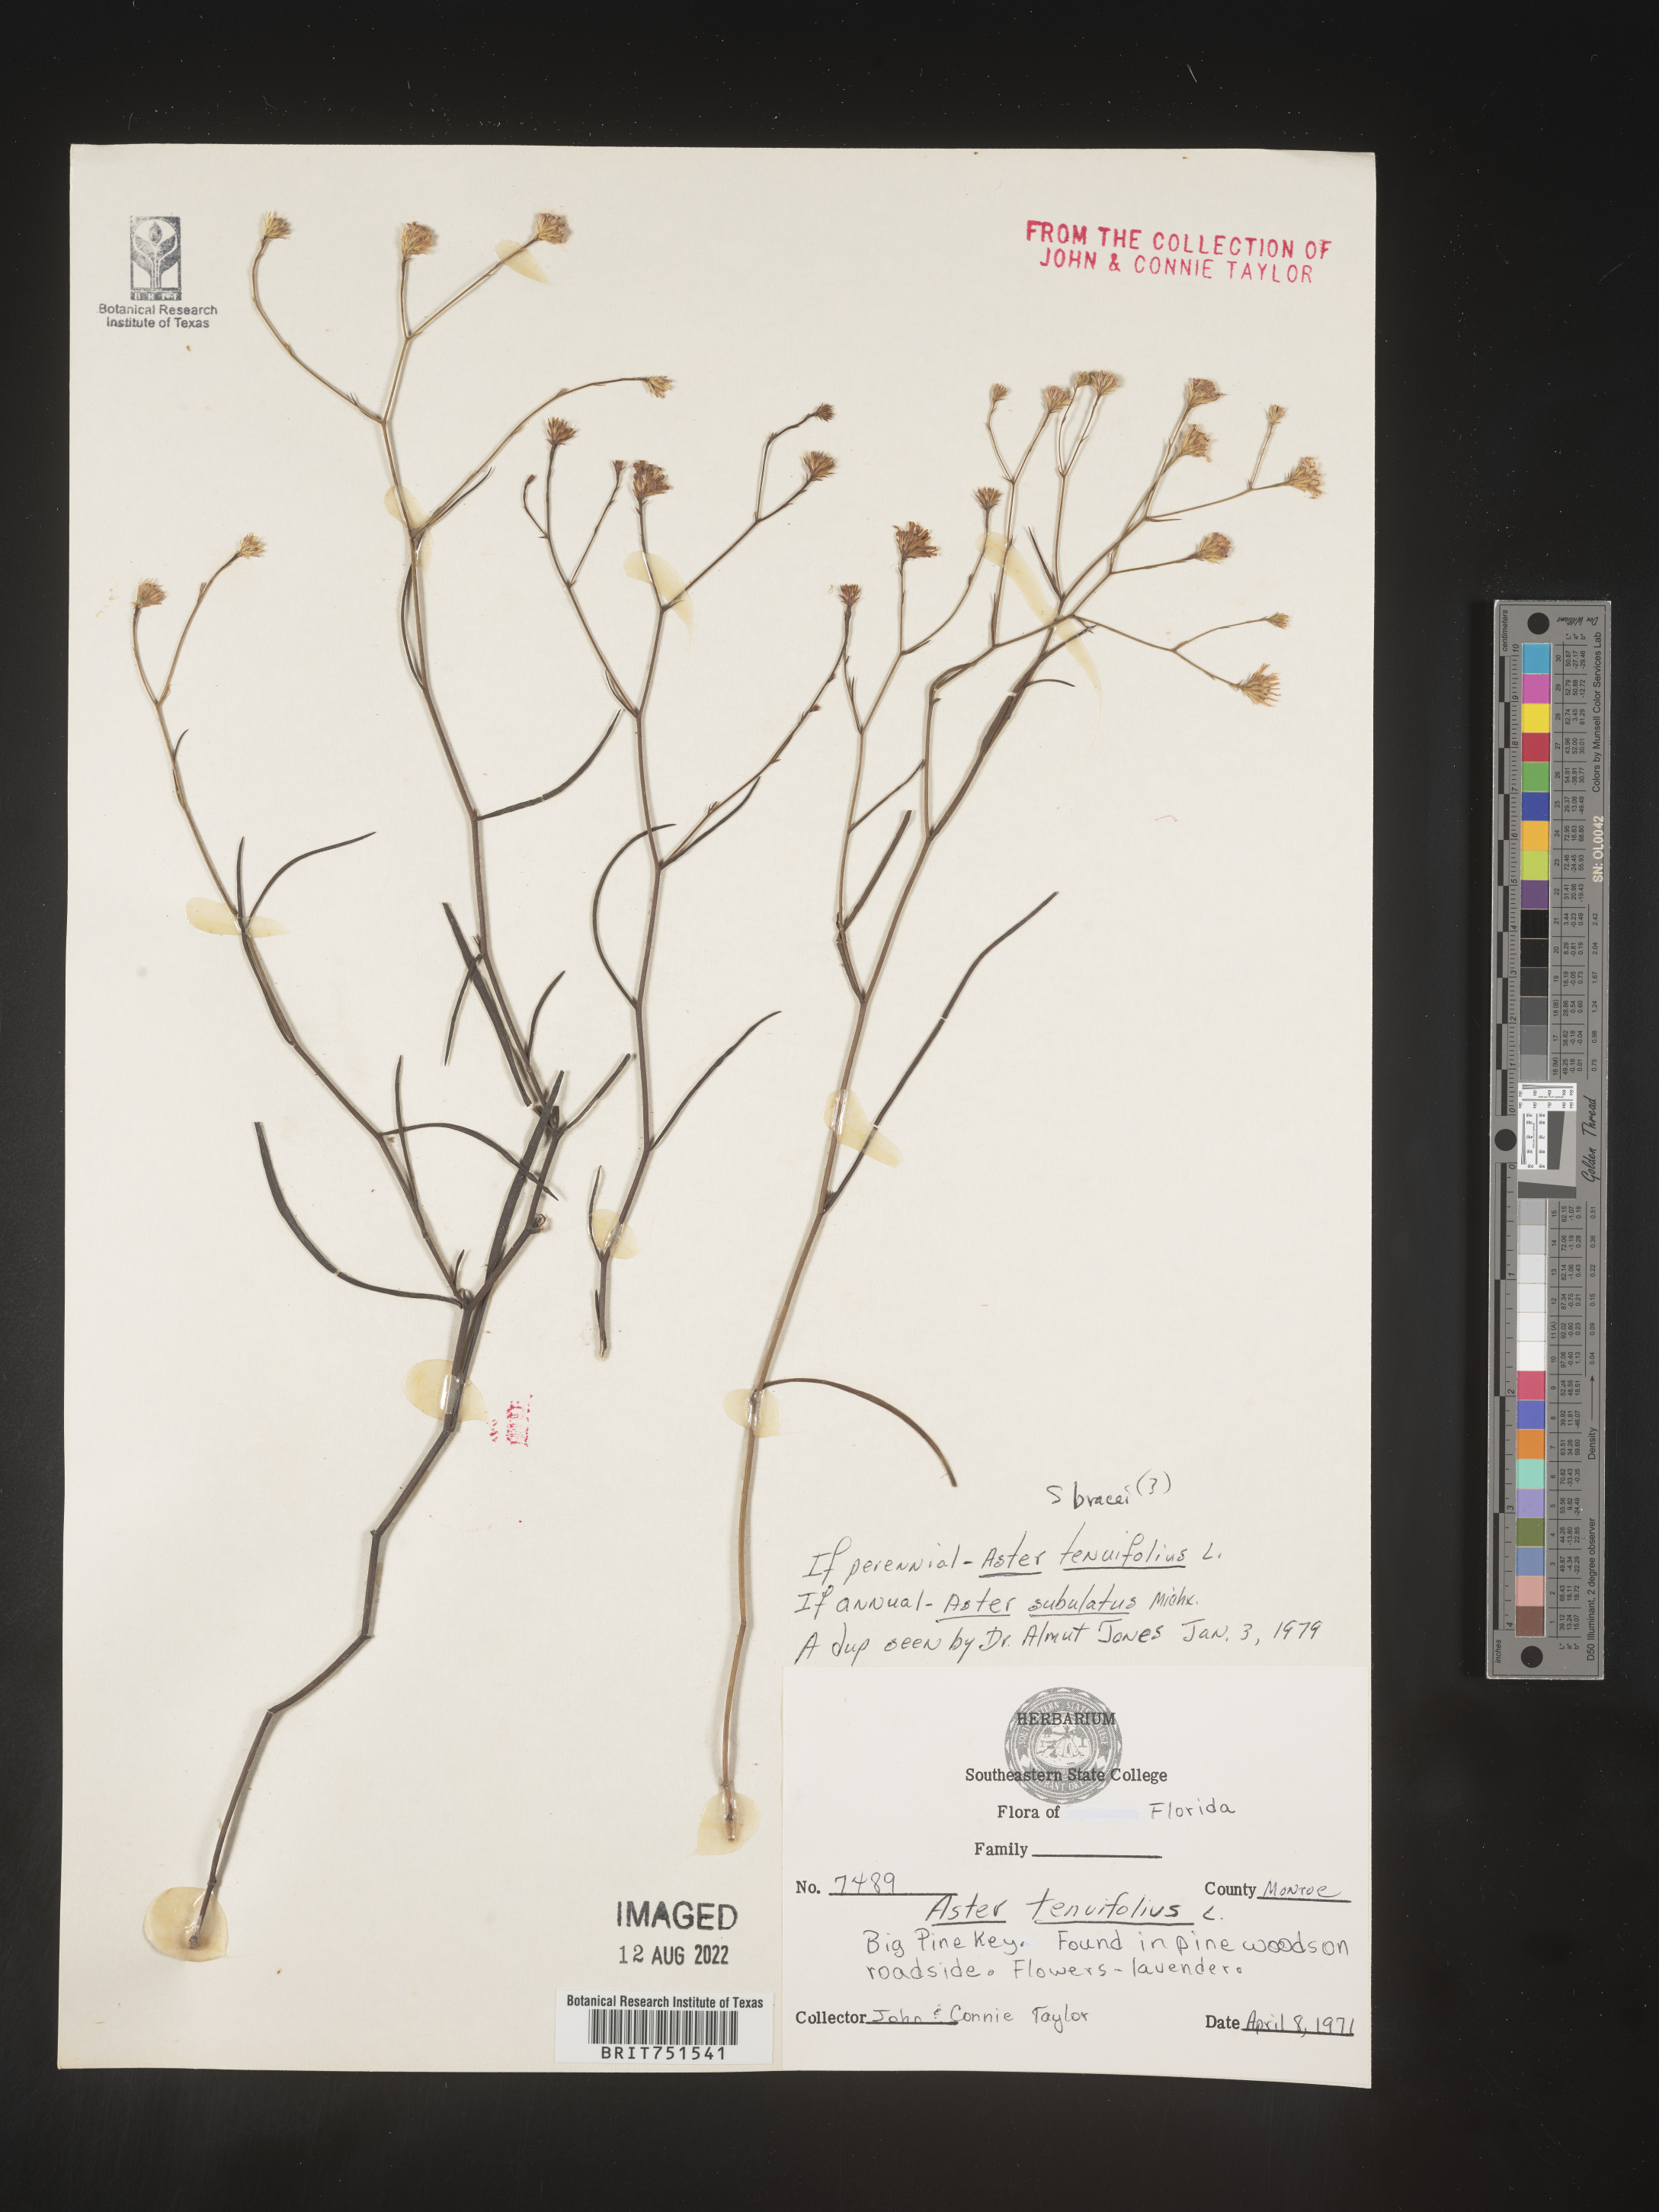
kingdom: Plantae
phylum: Tracheophyta
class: Magnoliopsida
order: Asterales
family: Asteraceae
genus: Symphyotrichum
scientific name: Symphyotrichum tenuifolium
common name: Perennial salt-marsh aster
